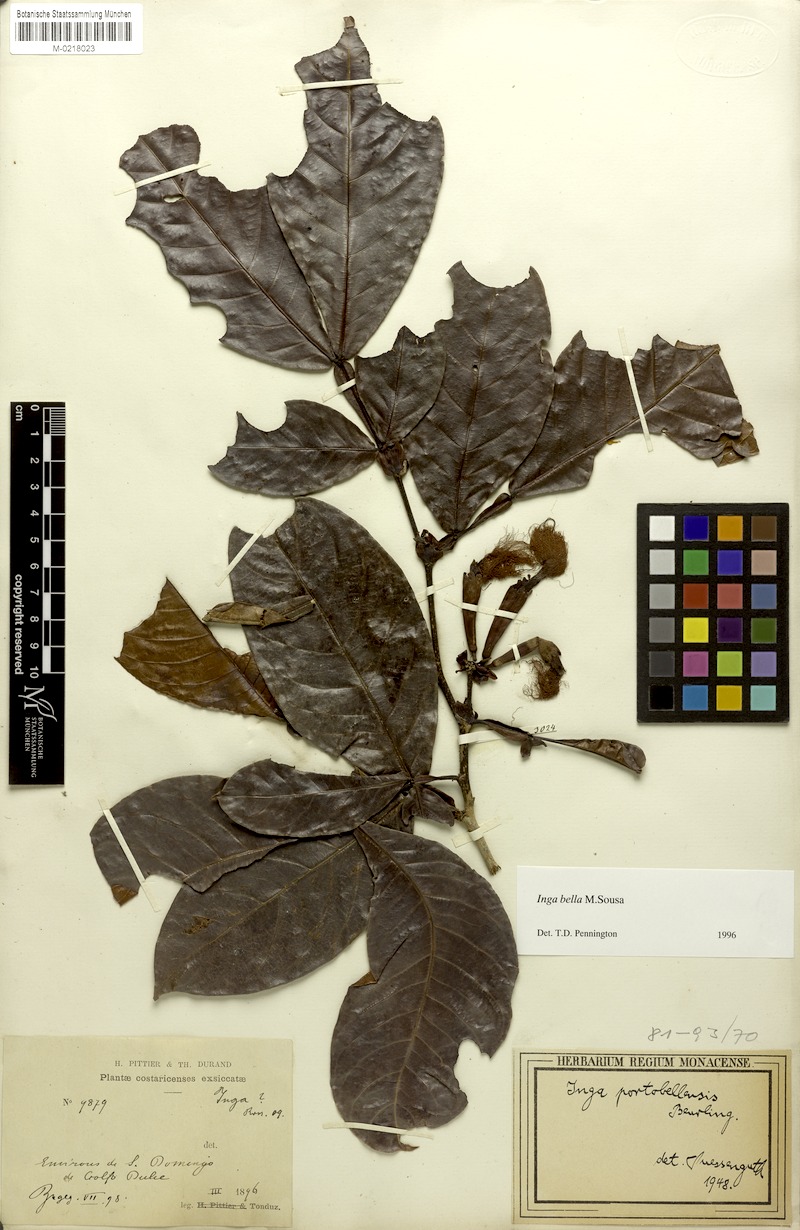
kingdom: Plantae
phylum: Tracheophyta
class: Magnoliopsida
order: Fabales
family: Fabaceae
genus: Inga
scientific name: Inga bella
